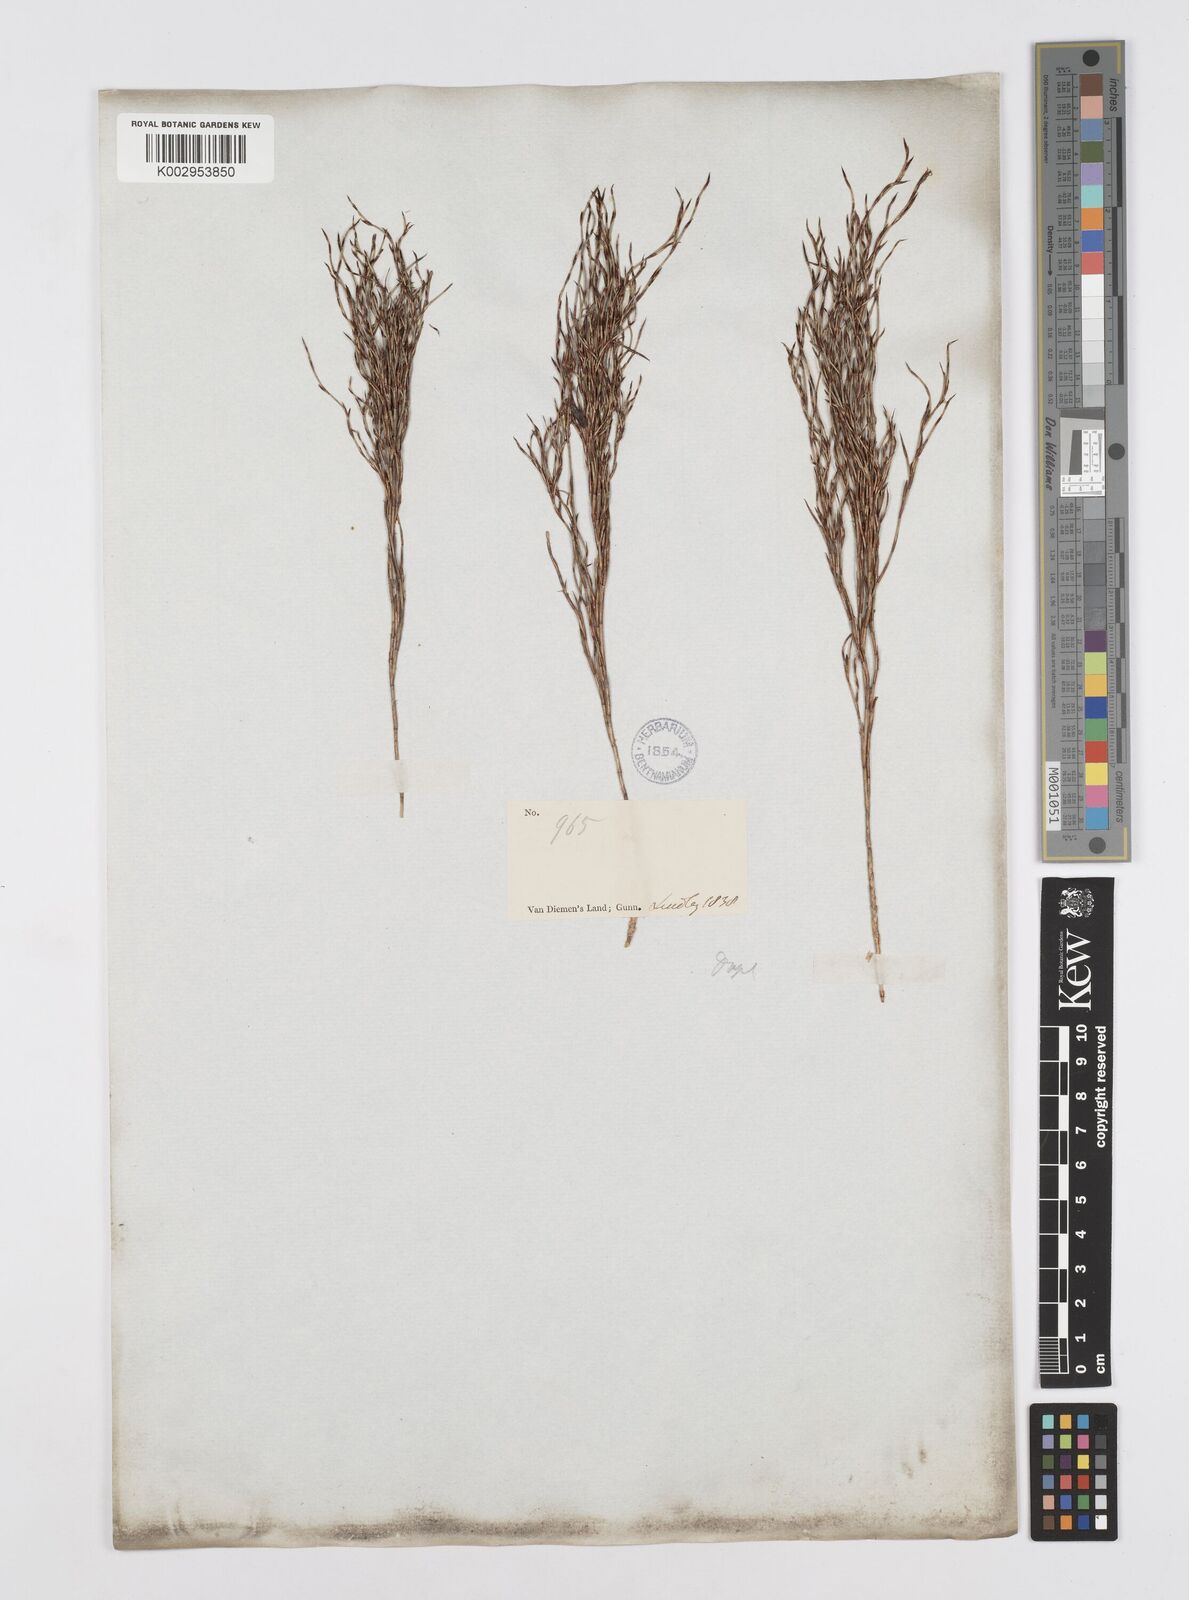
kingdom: Plantae
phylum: Tracheophyta
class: Liliopsida
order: Poales
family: Restionaceae
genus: Hypolaena
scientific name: Hypolaena fastigiata
